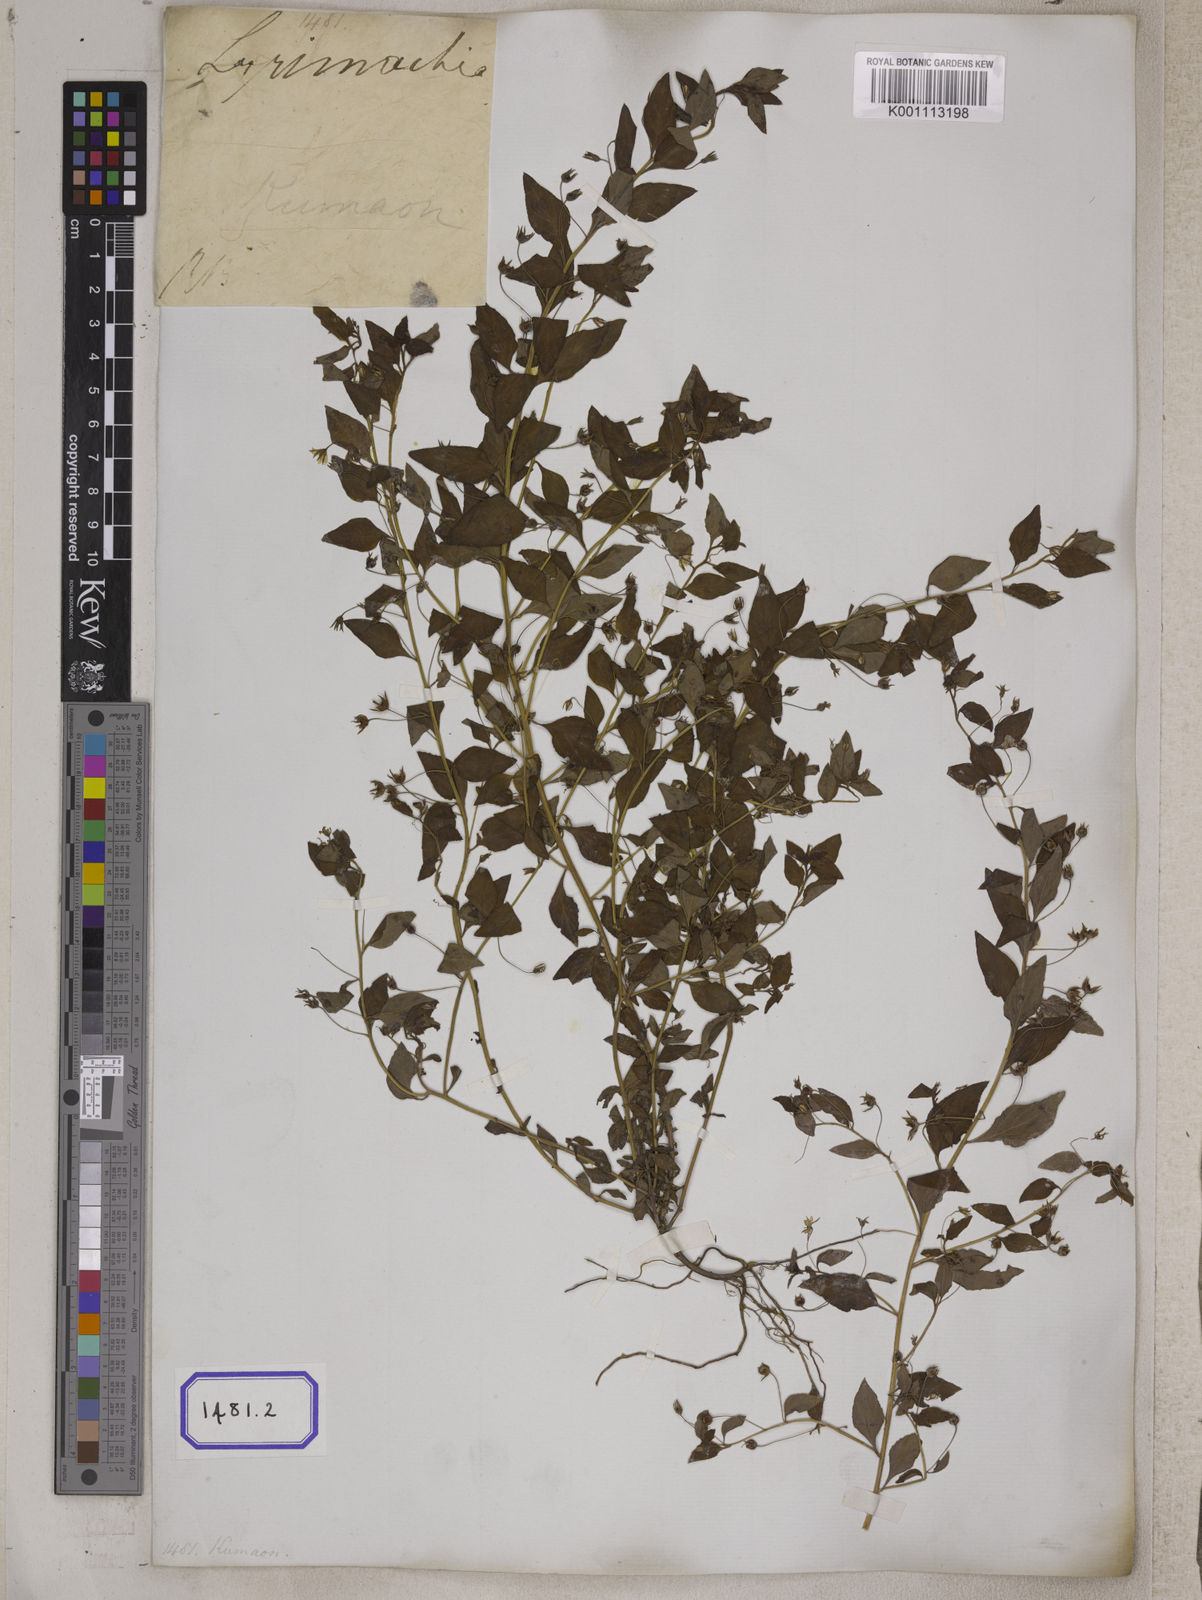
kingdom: Plantae
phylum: Tracheophyta
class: Magnoliopsida
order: Ericales
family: Primulaceae
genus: Lysimachia
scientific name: Lysimachia tetragona
